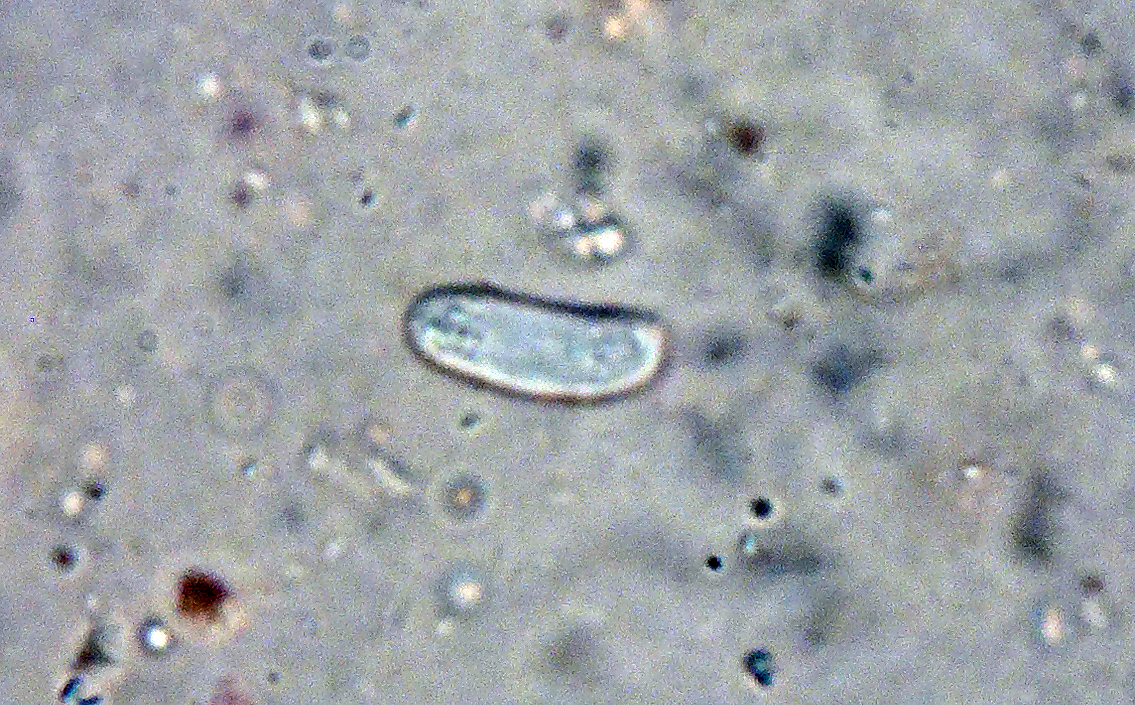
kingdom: Fungi
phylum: Basidiomycota
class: Agaricomycetes
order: Russulales
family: Peniophoraceae
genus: Peniophora
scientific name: Peniophora nuda
